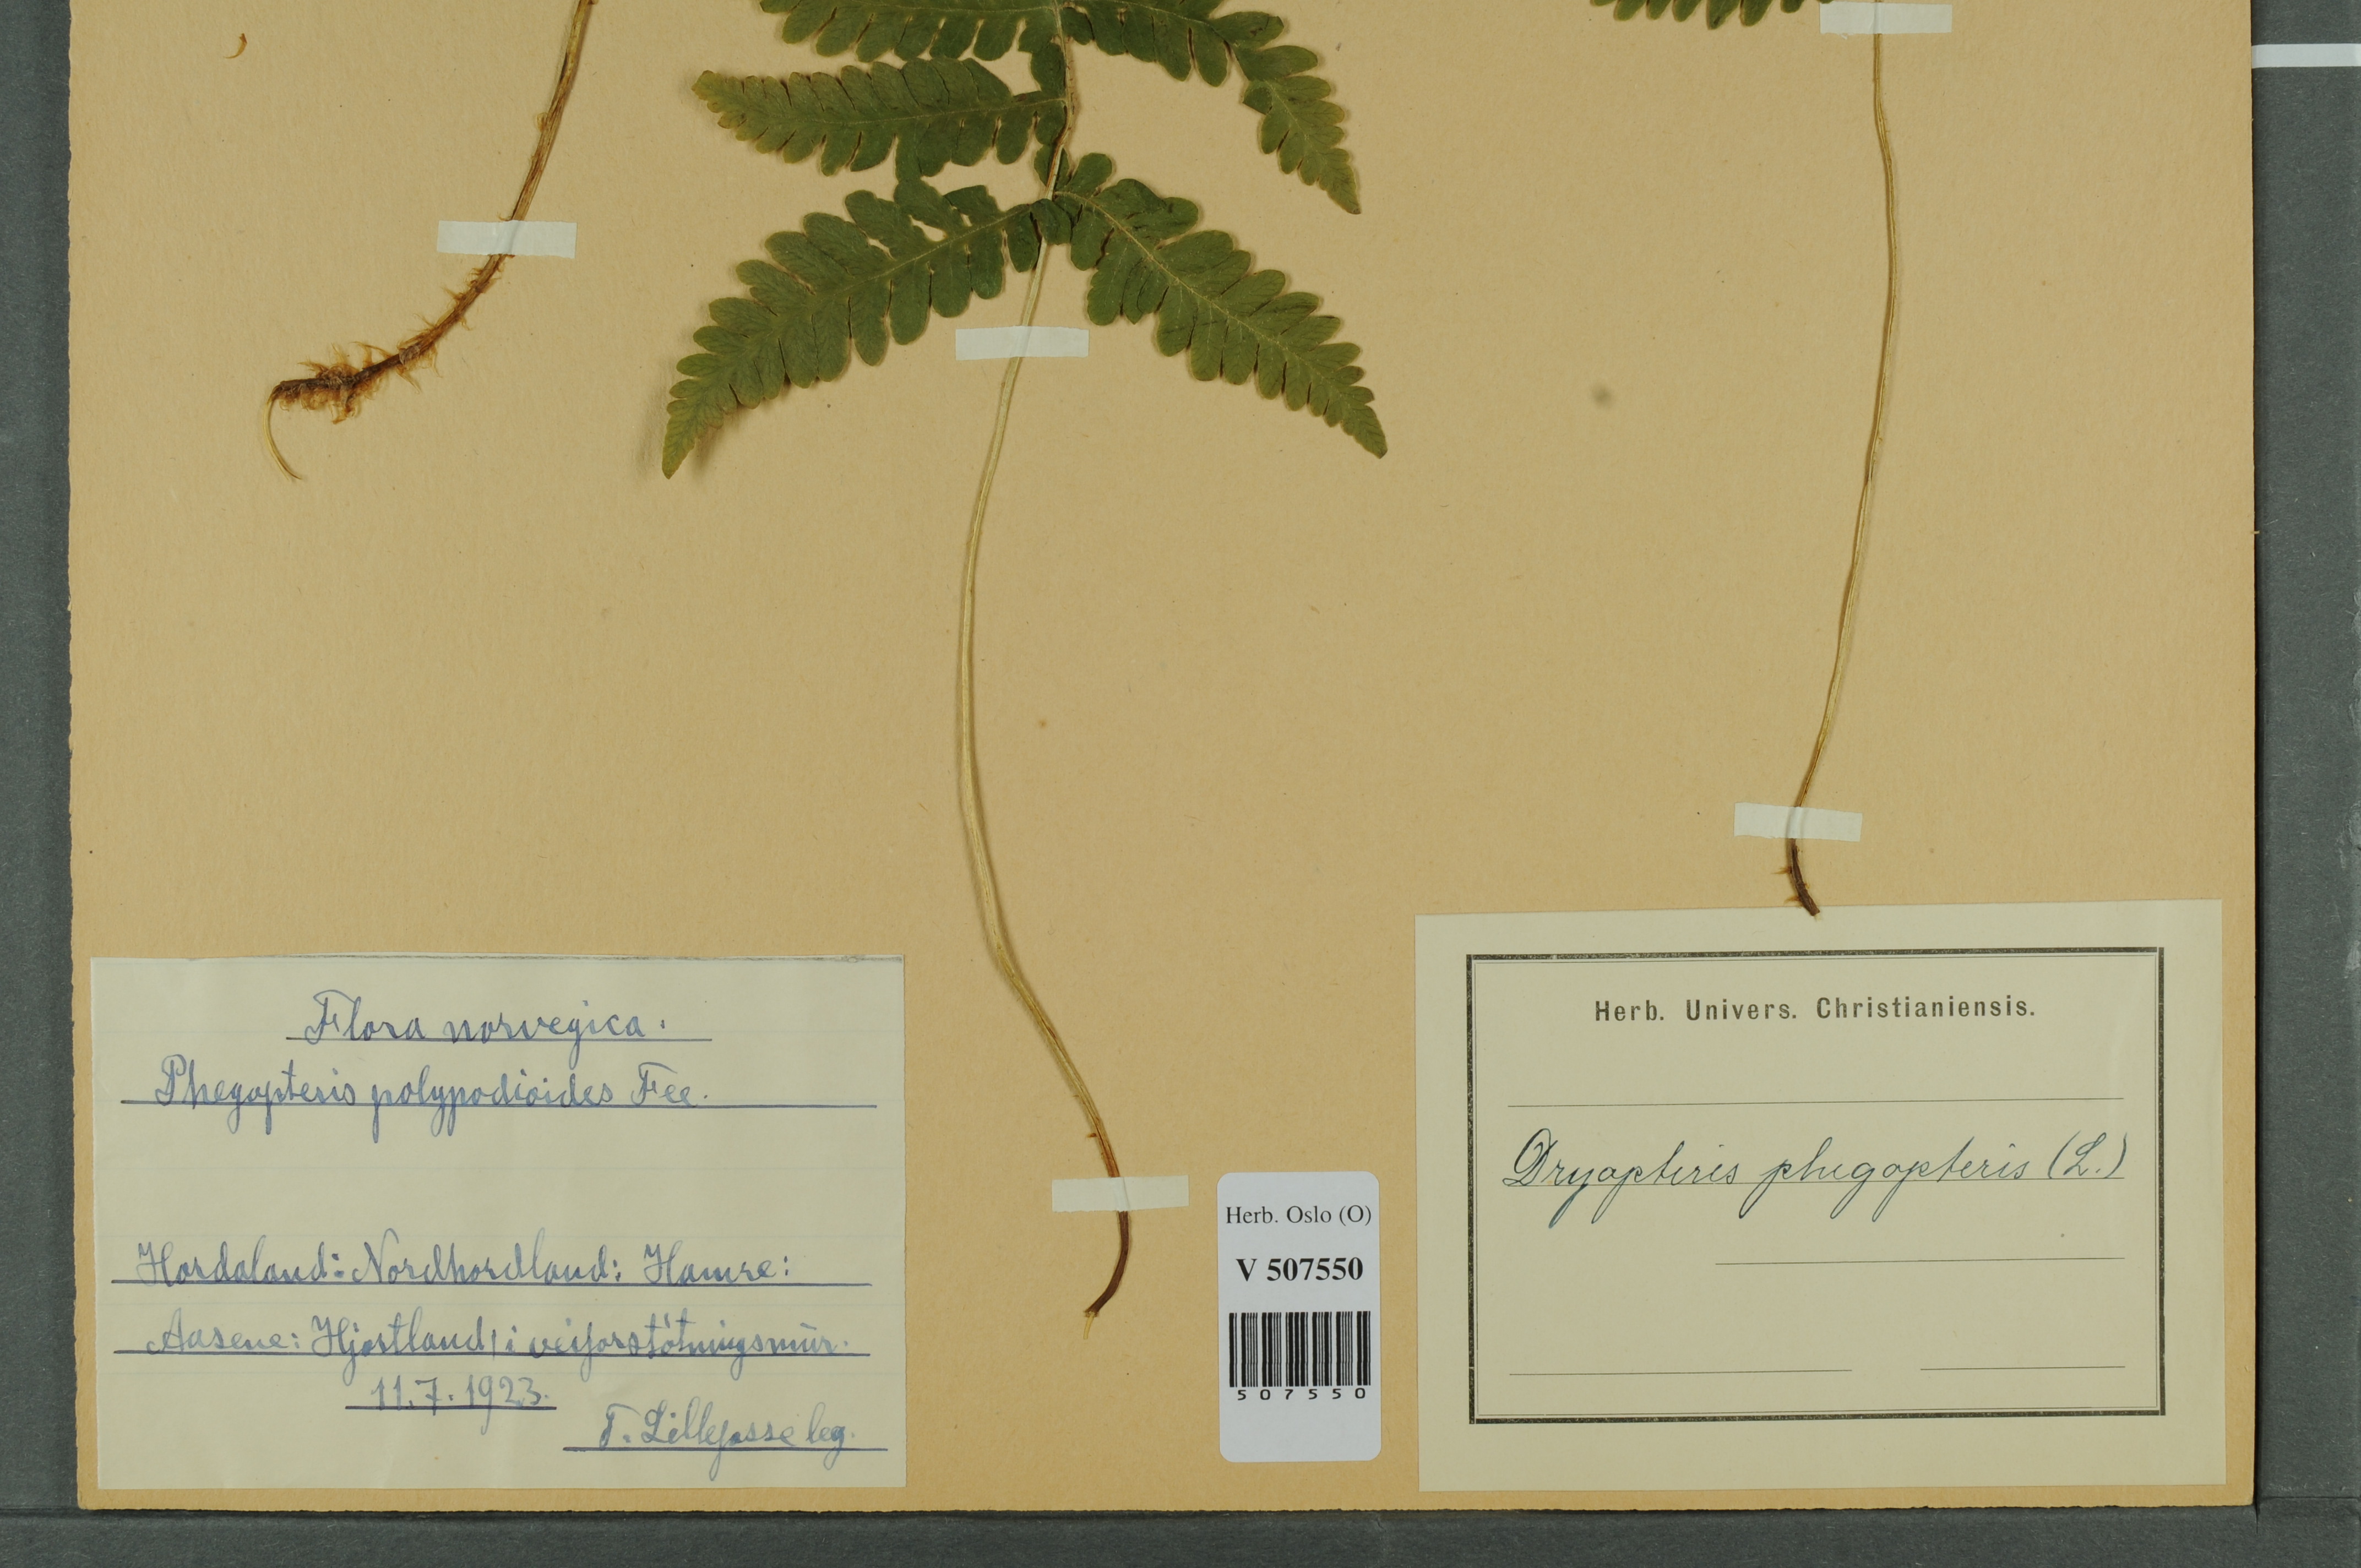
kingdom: Plantae
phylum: Tracheophyta
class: Polypodiopsida
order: Polypodiales
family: Thelypteridaceae
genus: Phegopteris
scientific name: Phegopteris connectilis
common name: Beech fern
